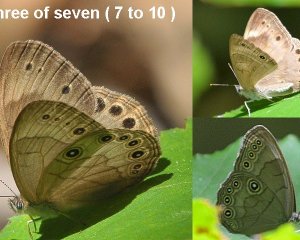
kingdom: Animalia
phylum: Arthropoda
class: Insecta
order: Lepidoptera
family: Nymphalidae
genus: Lethe
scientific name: Lethe eurydice
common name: Appalachian Eyed Brown
